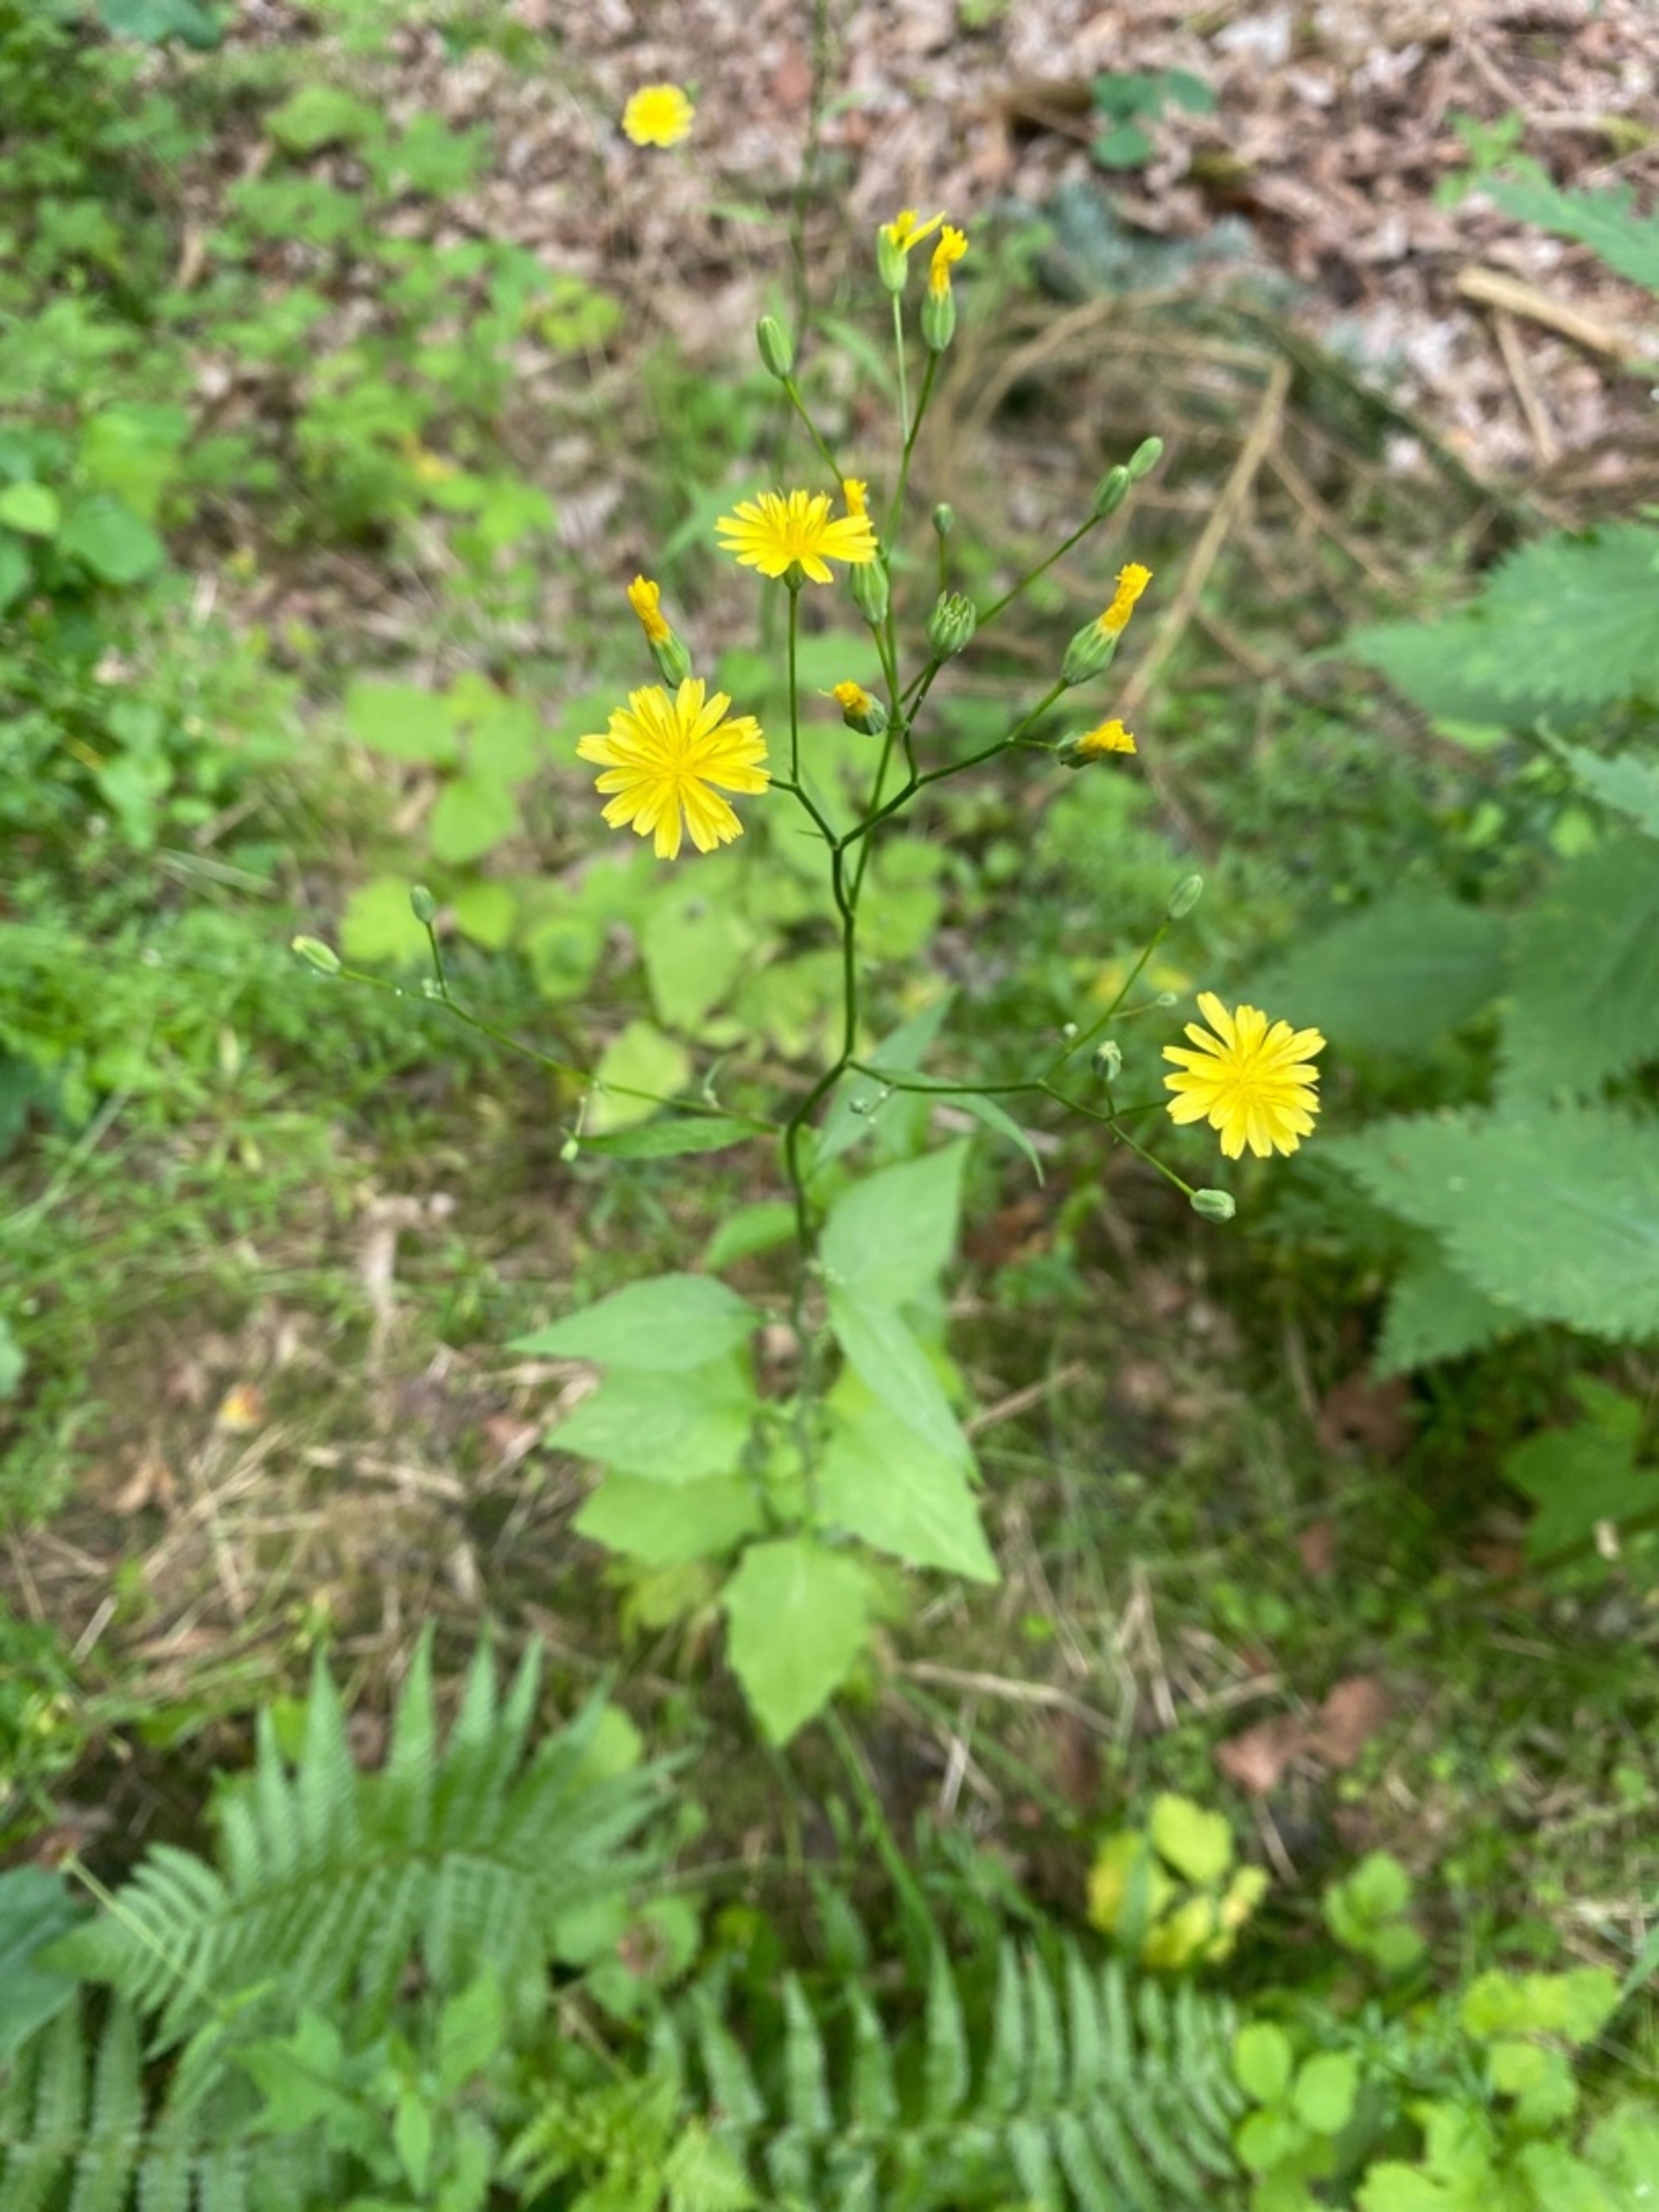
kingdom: Plantae
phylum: Tracheophyta
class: Magnoliopsida
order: Asterales
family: Asteraceae
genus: Lapsana
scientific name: Lapsana communis
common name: Haremad
